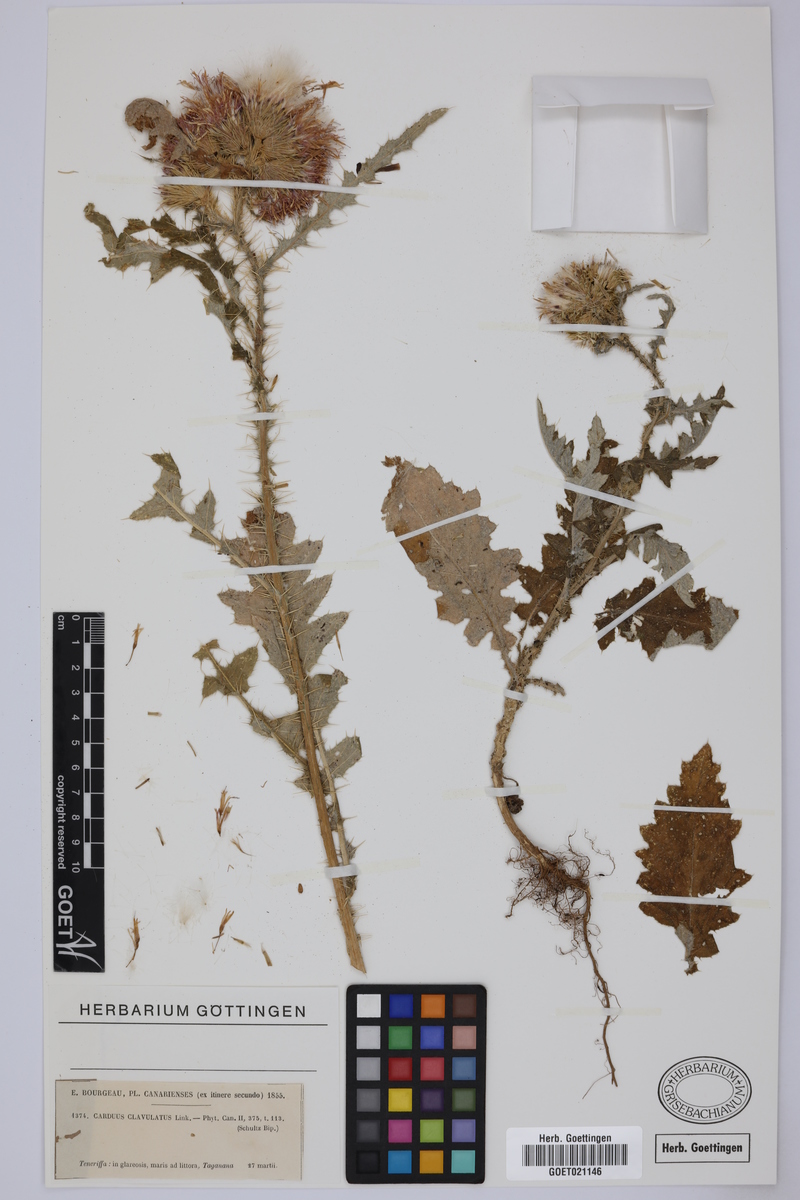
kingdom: Plantae
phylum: Tracheophyta
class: Magnoliopsida
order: Asterales
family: Asteraceae
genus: Carduus
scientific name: Carduus clavulatus
